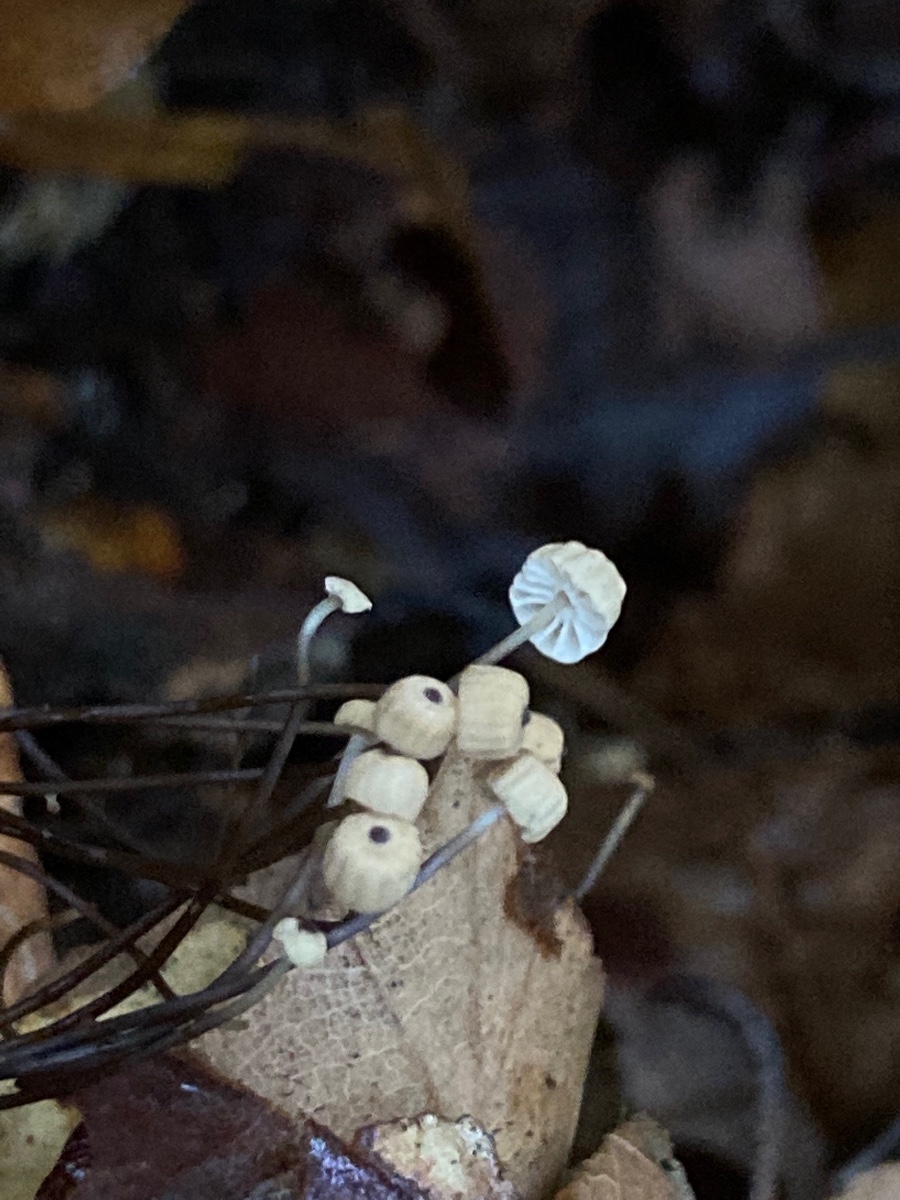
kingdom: Fungi
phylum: Basidiomycota
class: Agaricomycetes
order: Agaricales
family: Marasmiaceae
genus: Marasmius
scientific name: Marasmius bulliardii
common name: furet bruskhat
